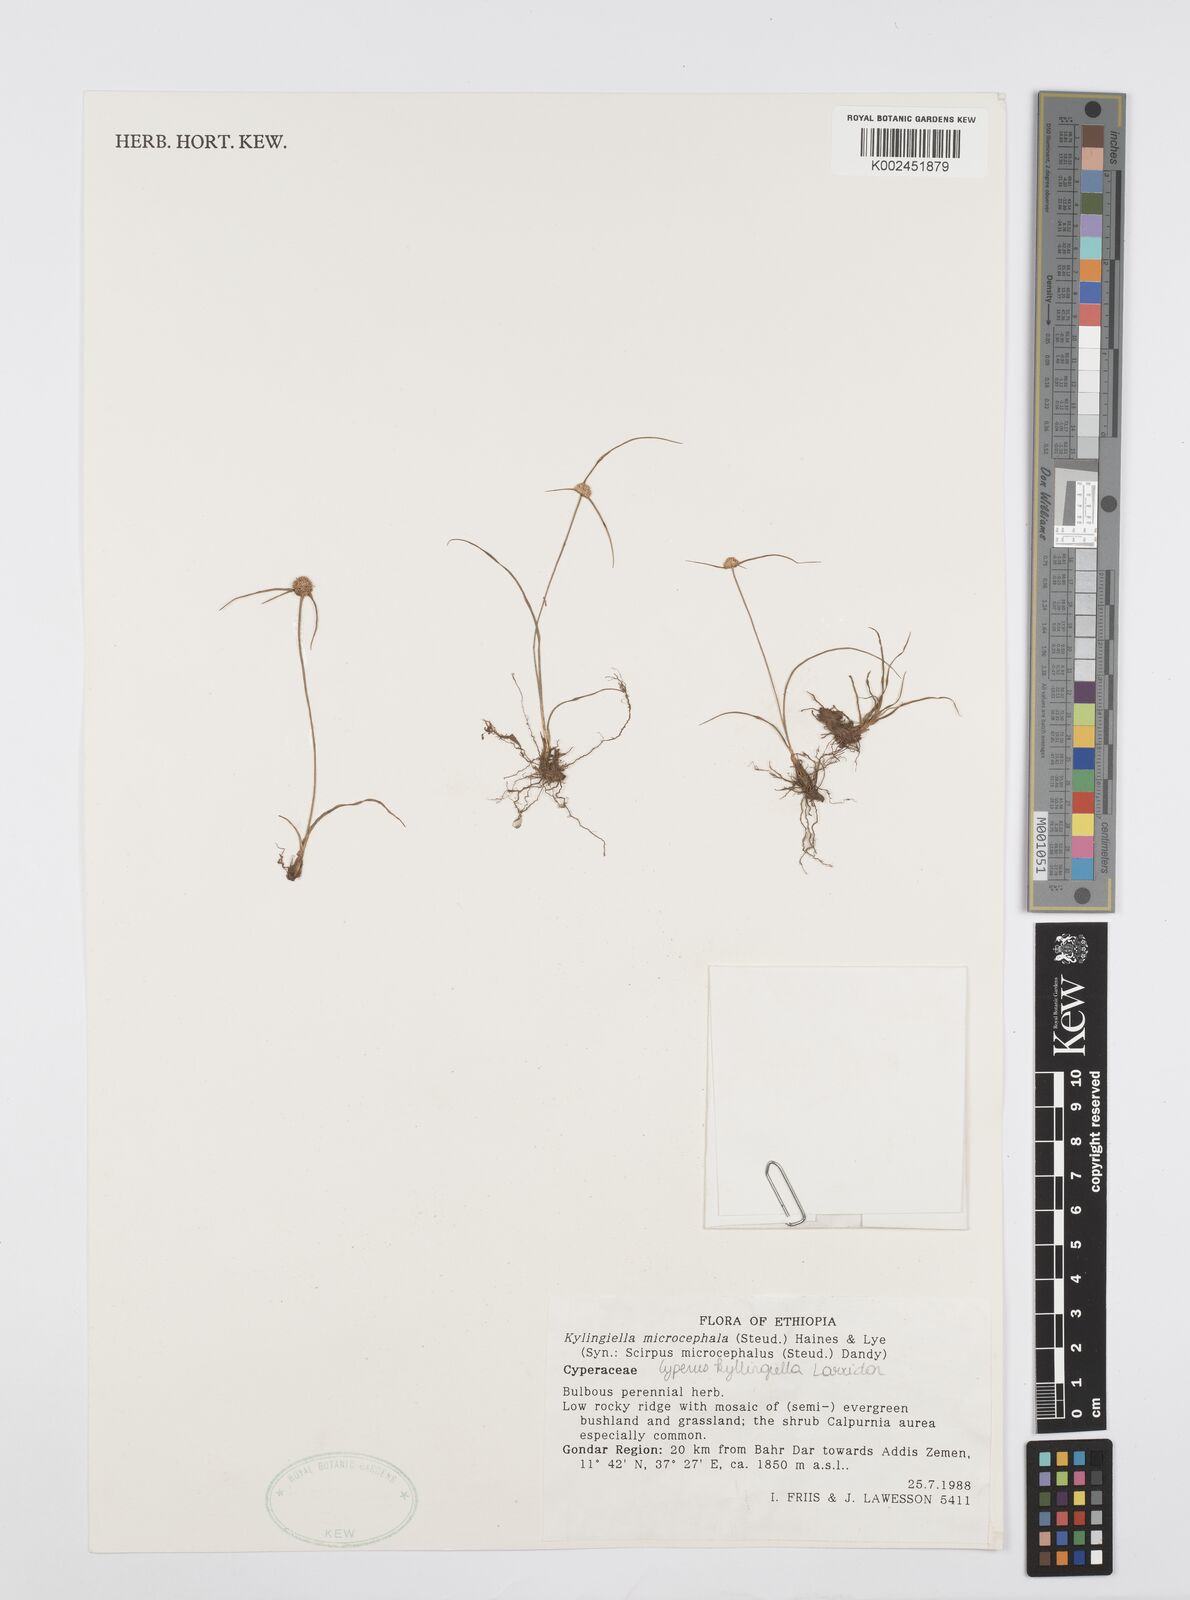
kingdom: Plantae
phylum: Tracheophyta
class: Liliopsida
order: Poales
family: Cyperaceae
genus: Cyperus
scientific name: Cyperus microcephalus
